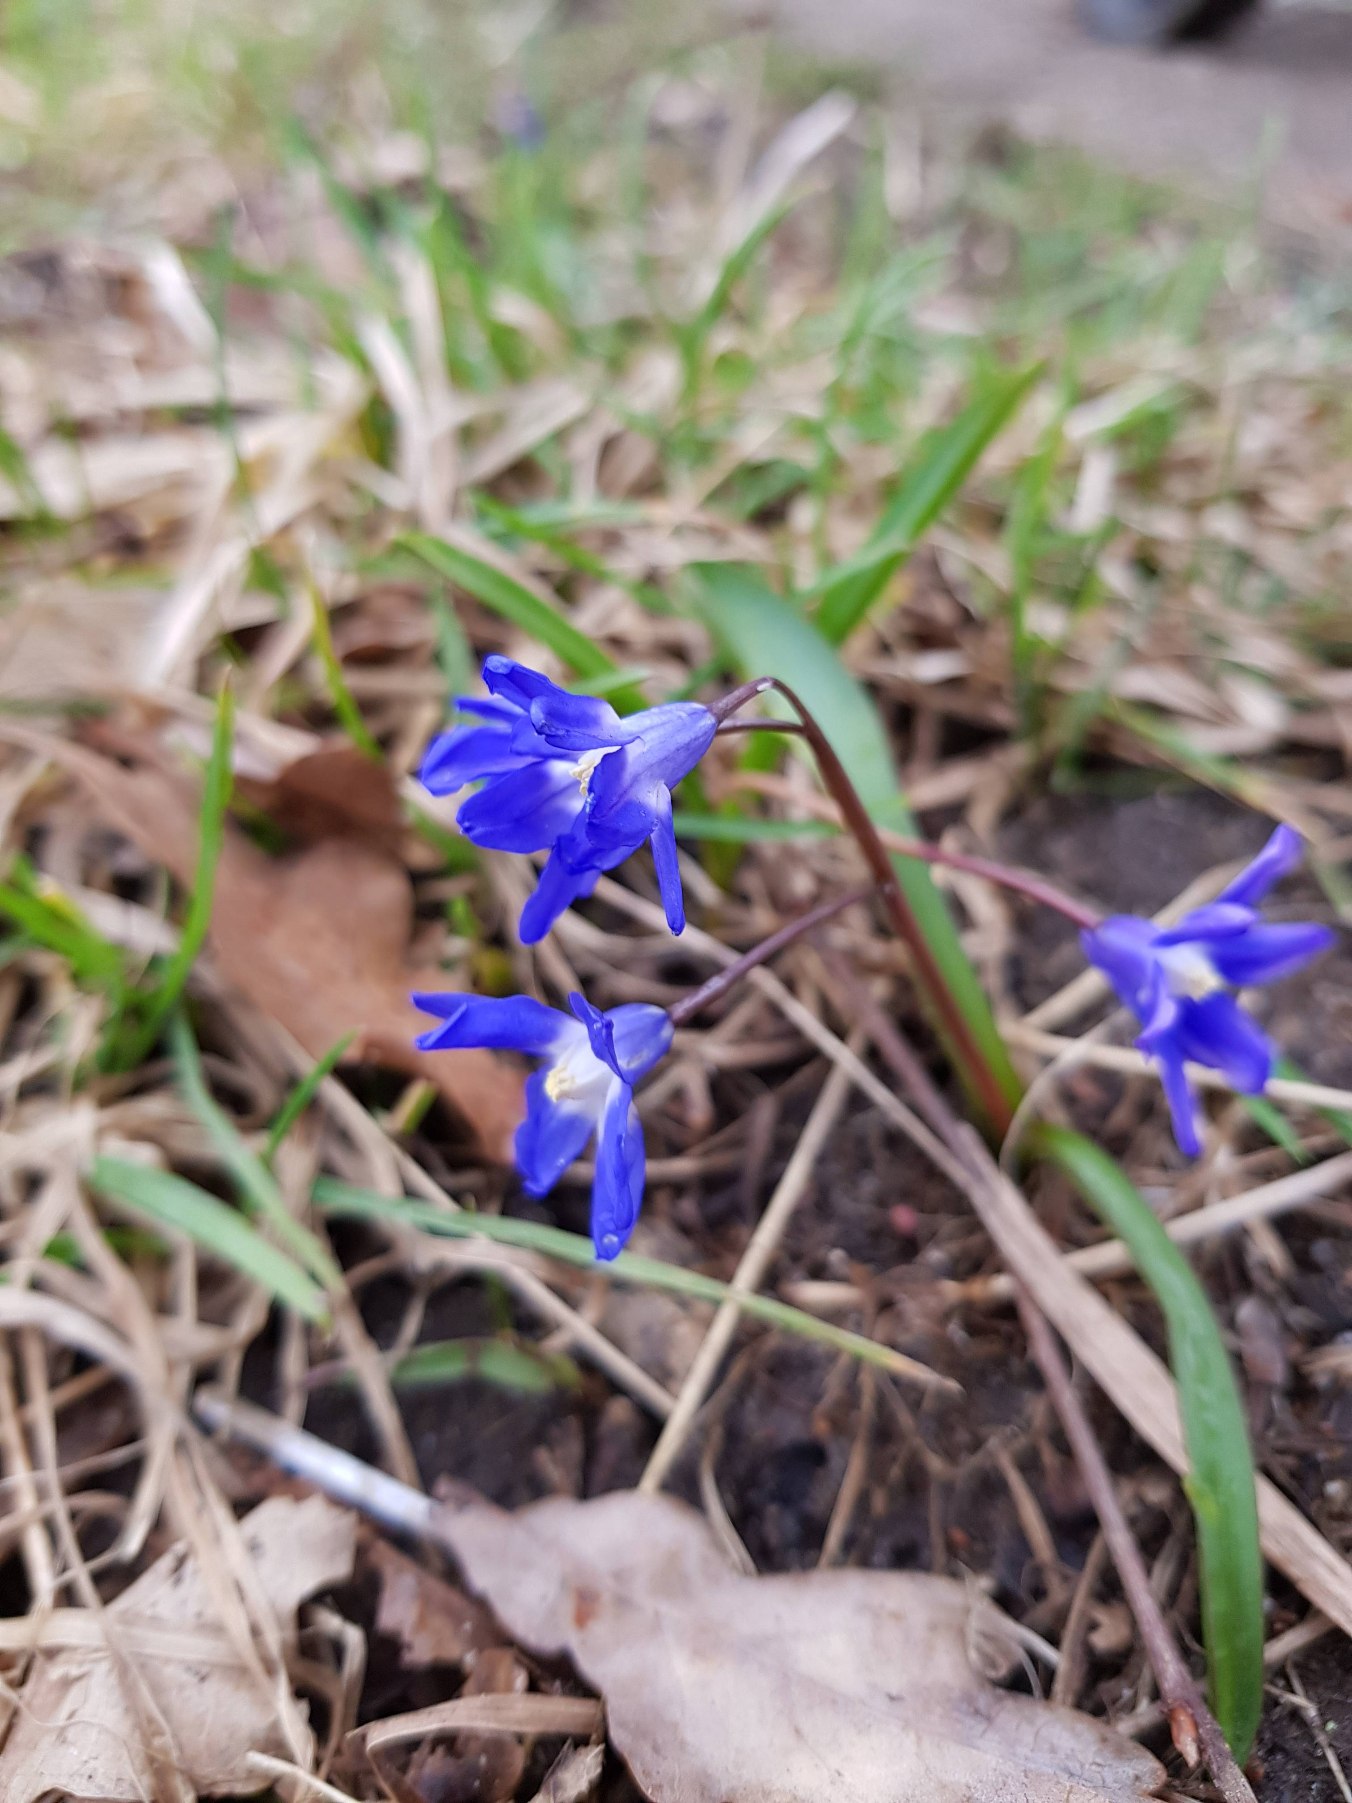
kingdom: Plantae
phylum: Tracheophyta
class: Liliopsida
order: Asparagales
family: Asparagaceae
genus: Scilla
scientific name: Scilla sardensis
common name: Liden snepryd
